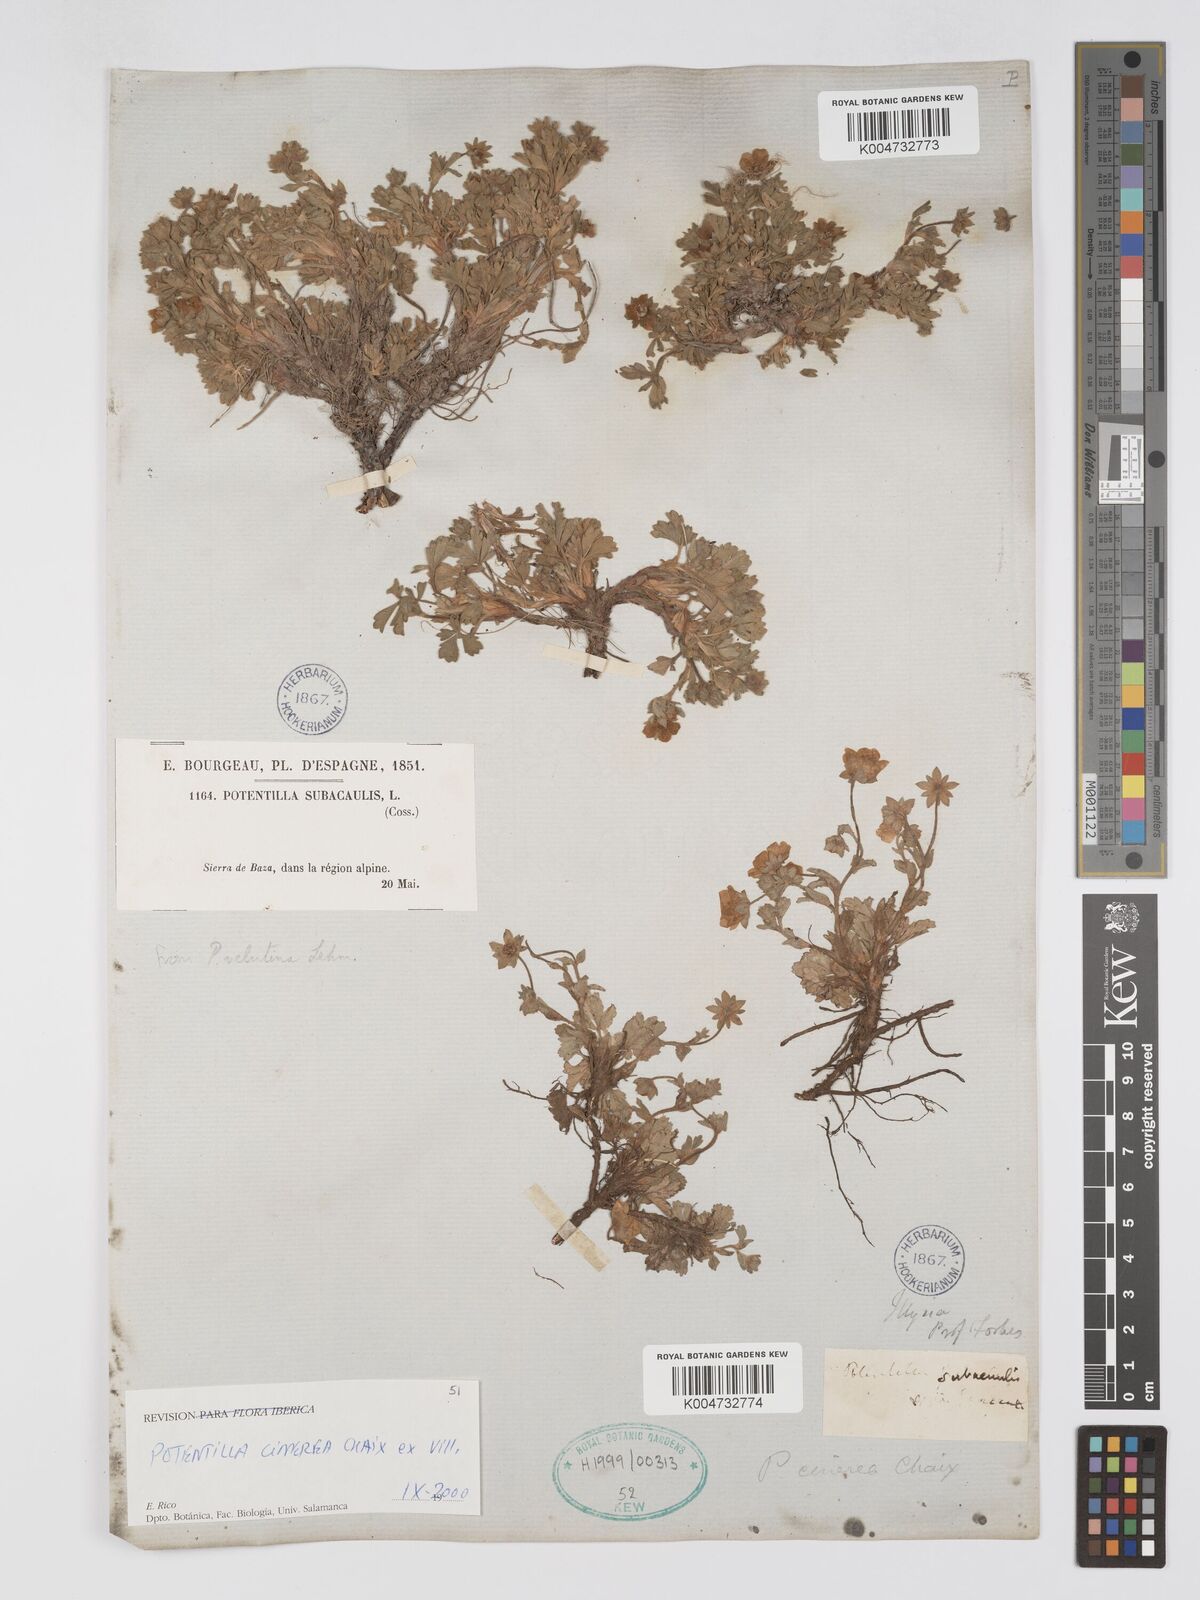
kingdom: Plantae
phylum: Tracheophyta
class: Magnoliopsida
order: Rosales
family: Rosaceae
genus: Potentilla
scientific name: Potentilla
